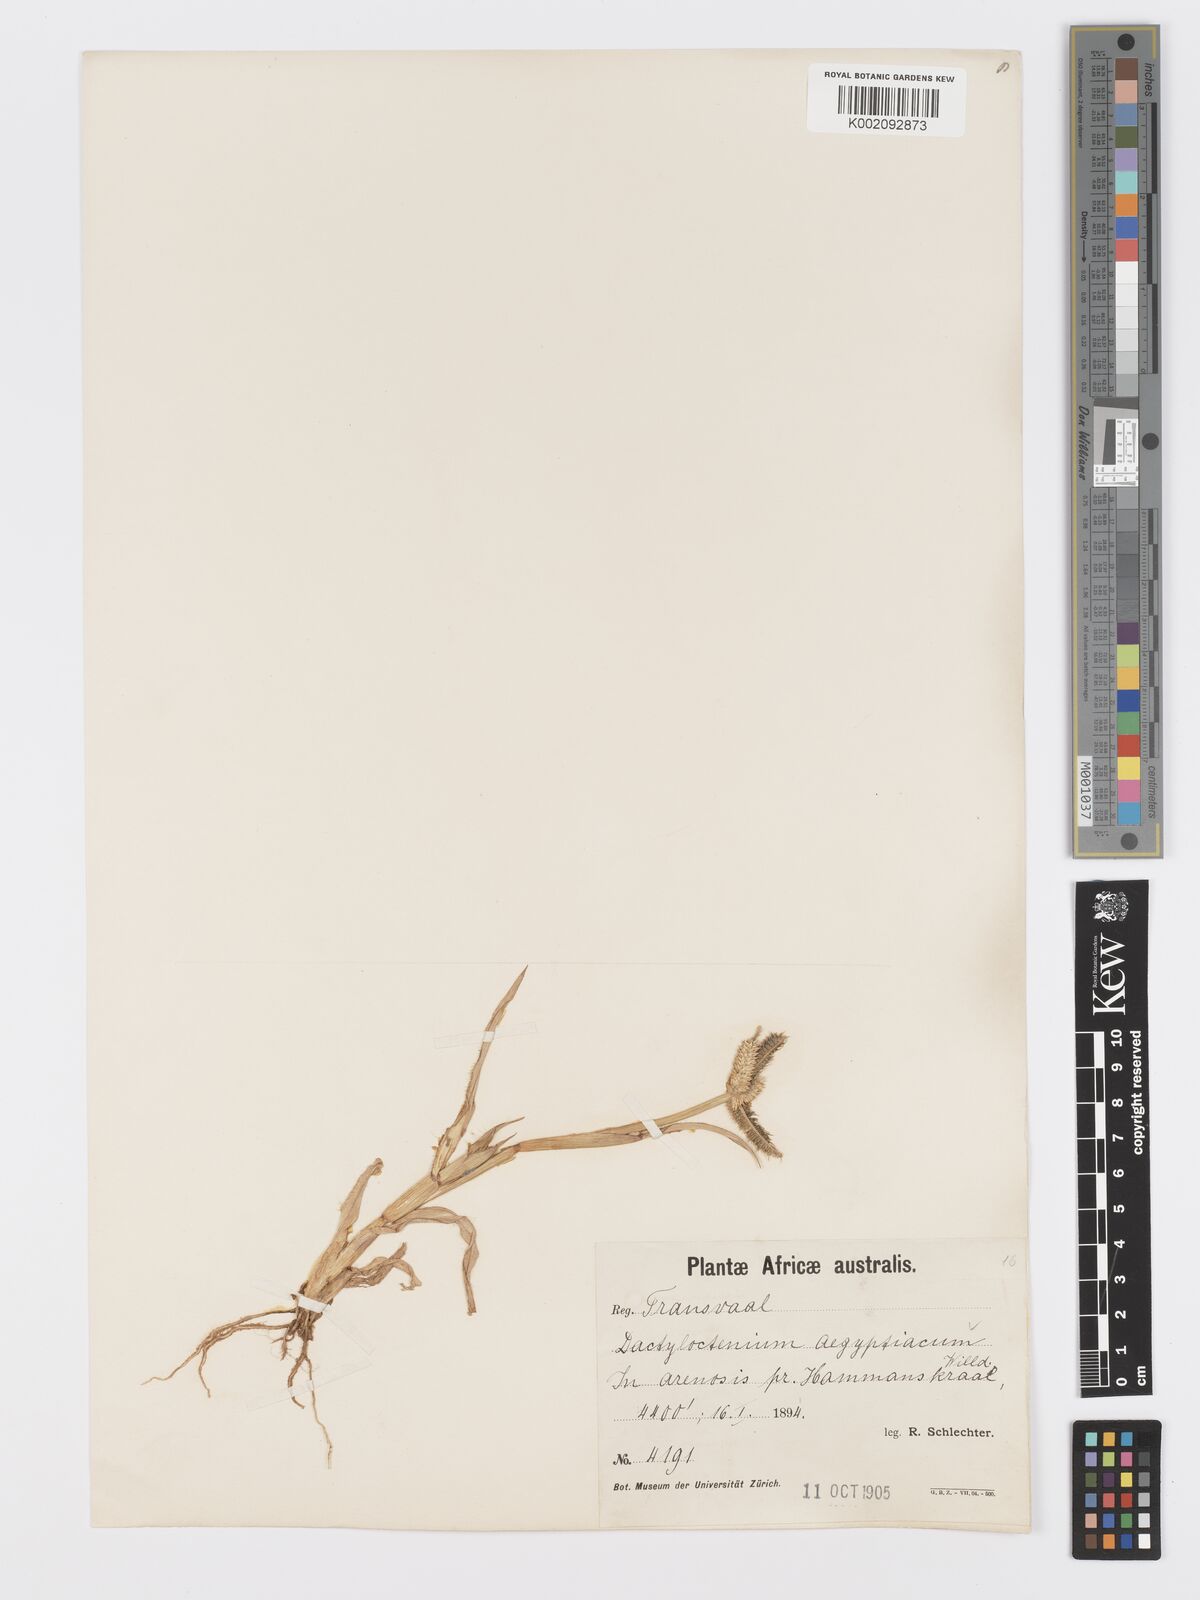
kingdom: Plantae
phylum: Tracheophyta
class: Liliopsida
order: Poales
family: Poaceae
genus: Dactyloctenium
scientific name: Dactyloctenium aegyptium
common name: Egyptian grass
